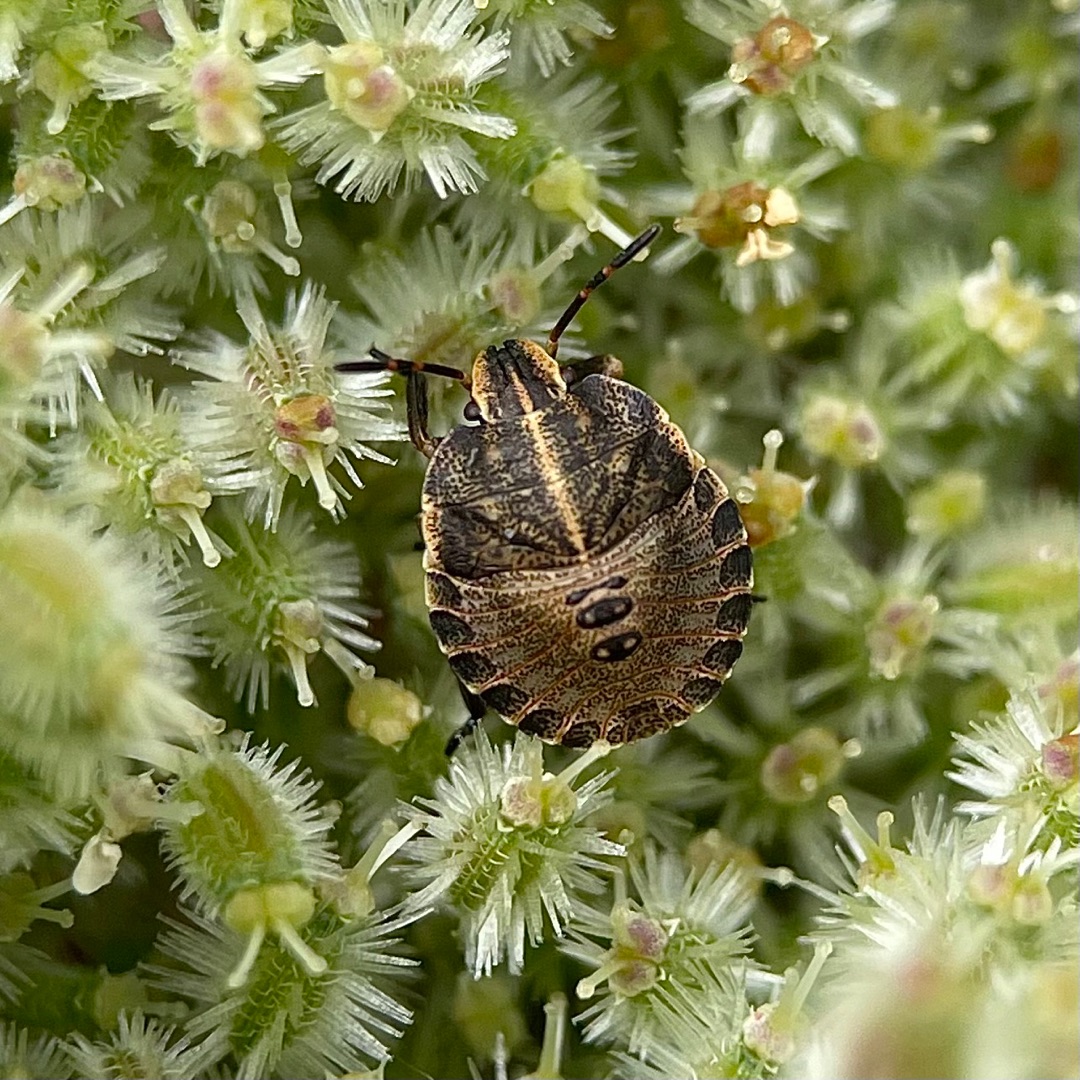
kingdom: Animalia
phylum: Arthropoda
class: Insecta
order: Hemiptera
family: Pentatomidae
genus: Graphosoma
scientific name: Graphosoma italicum
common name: Stribetæge
